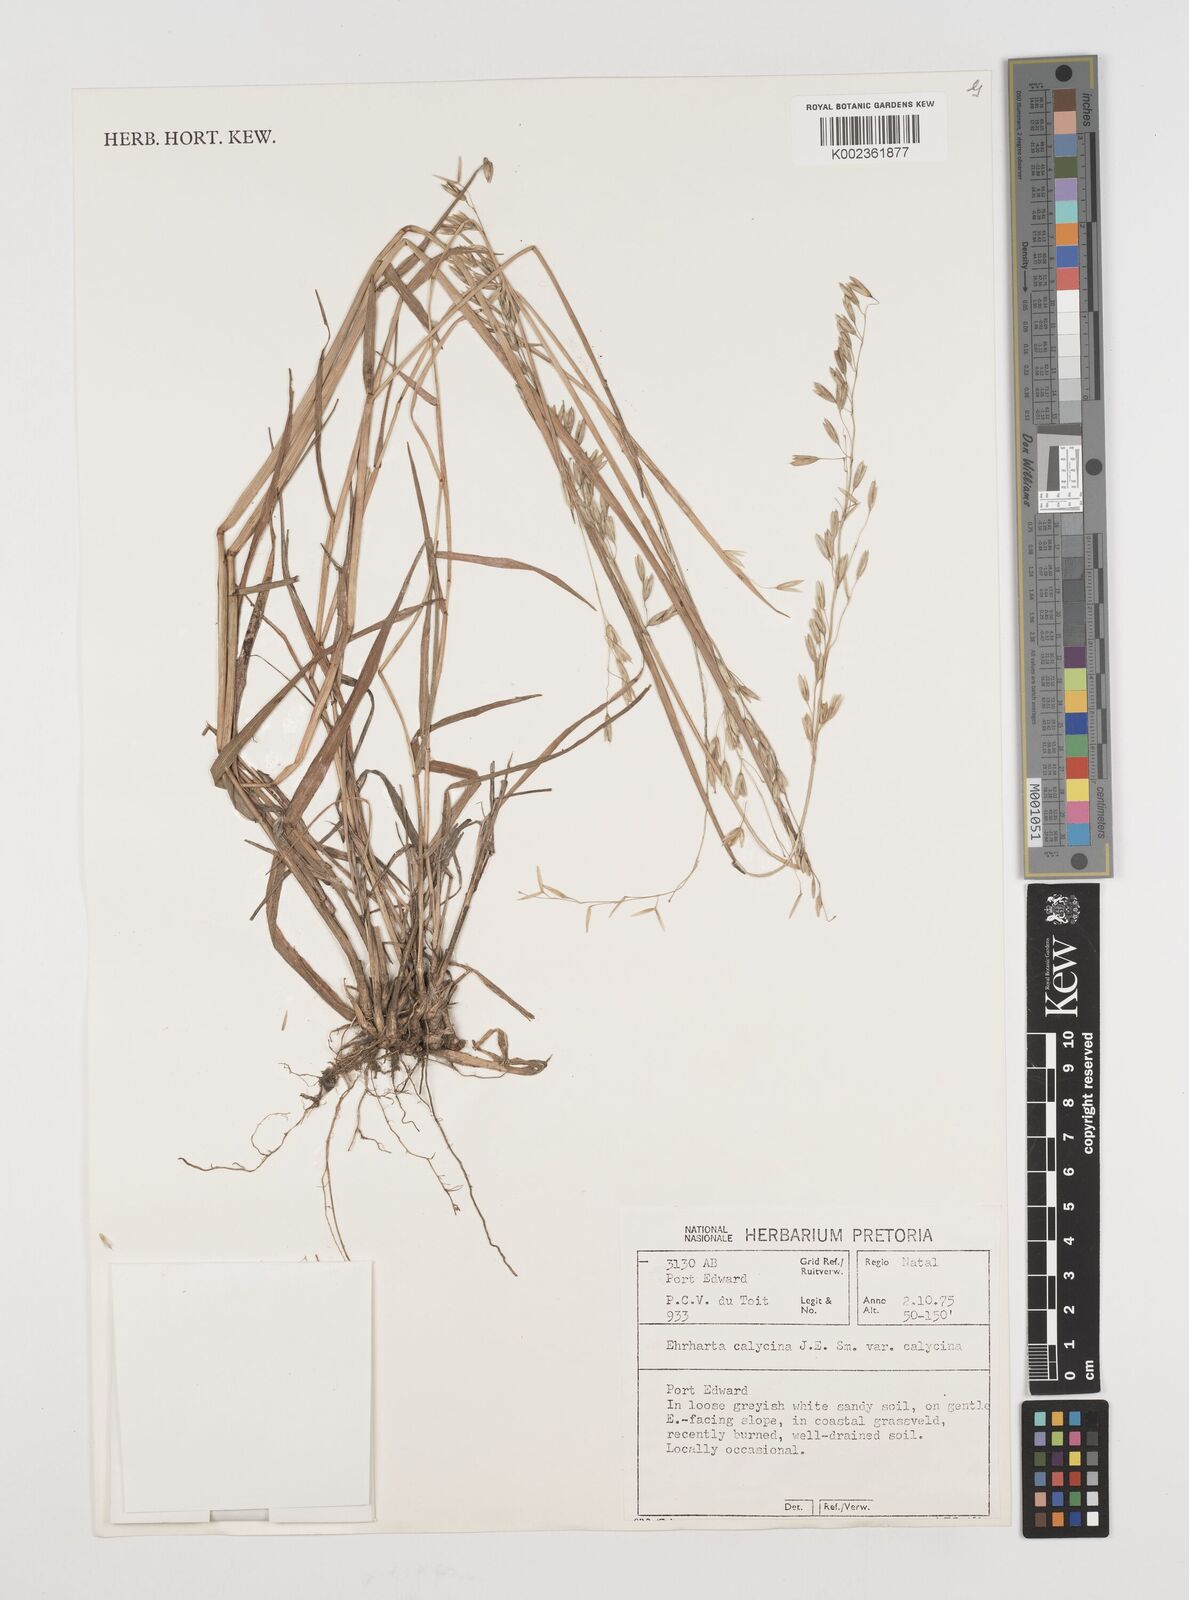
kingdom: Plantae
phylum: Tracheophyta
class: Liliopsida
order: Poales
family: Poaceae
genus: Ehrharta
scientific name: Ehrharta
